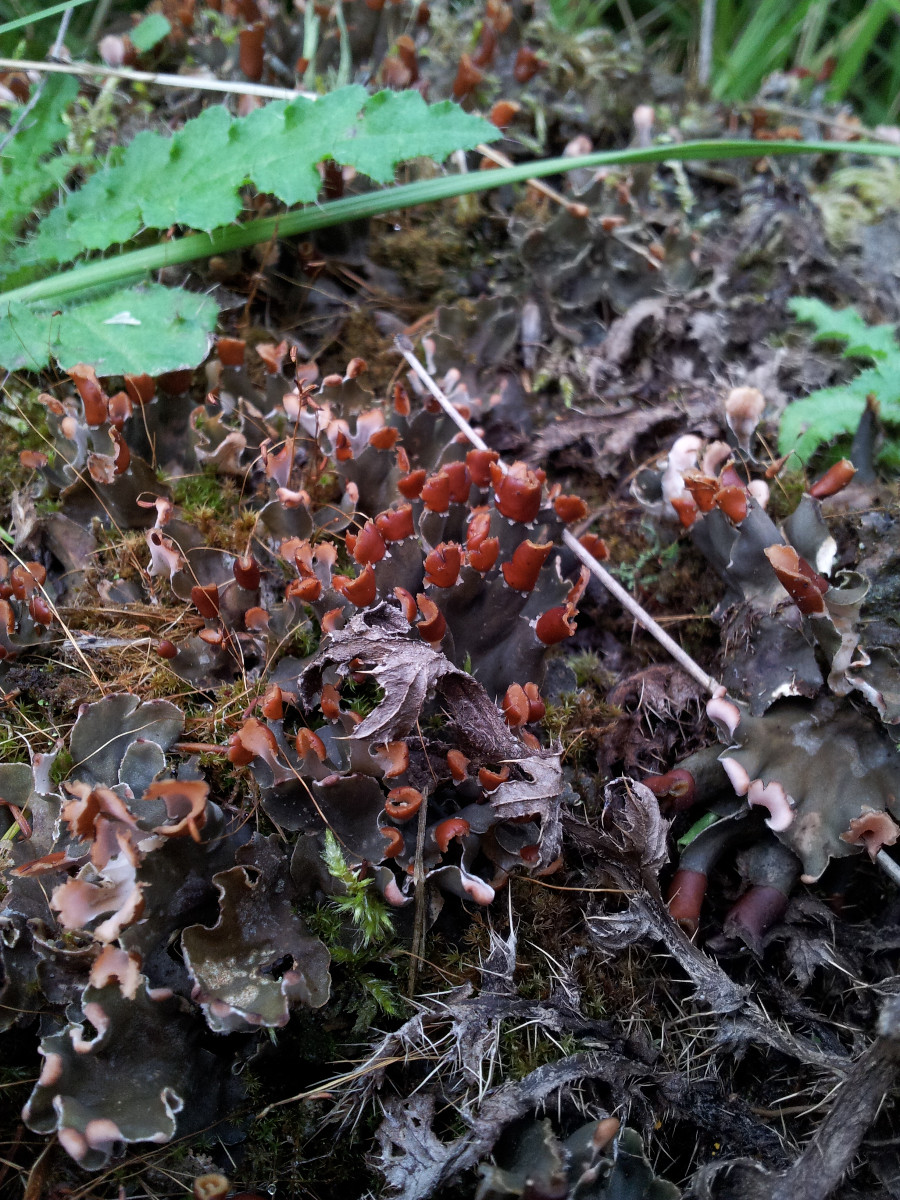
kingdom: Fungi
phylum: Ascomycota
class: Lecanoromycetes
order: Peltigerales
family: Peltigeraceae
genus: Peltigera
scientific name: Peltigera didactyla
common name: liden skjoldlav
